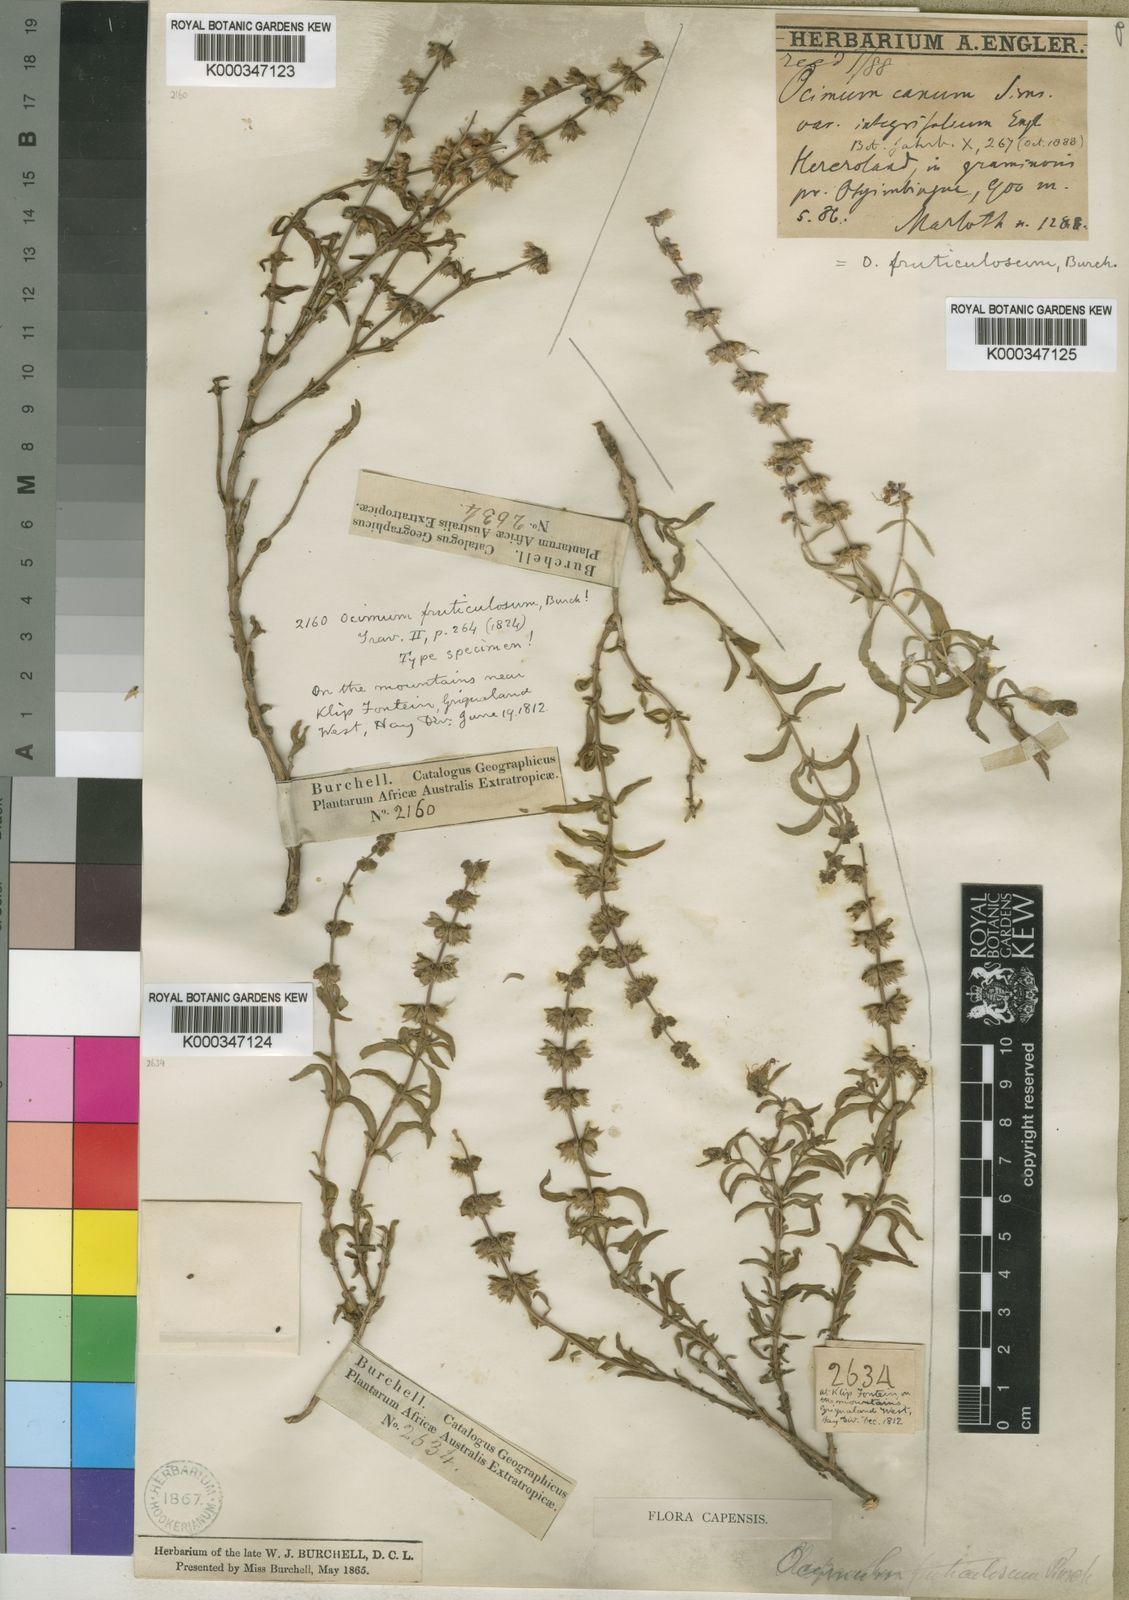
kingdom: Plantae
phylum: Tracheophyta
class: Magnoliopsida
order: Lamiales
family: Lamiaceae
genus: Ocimum
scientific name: Ocimum americanum
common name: American basil
